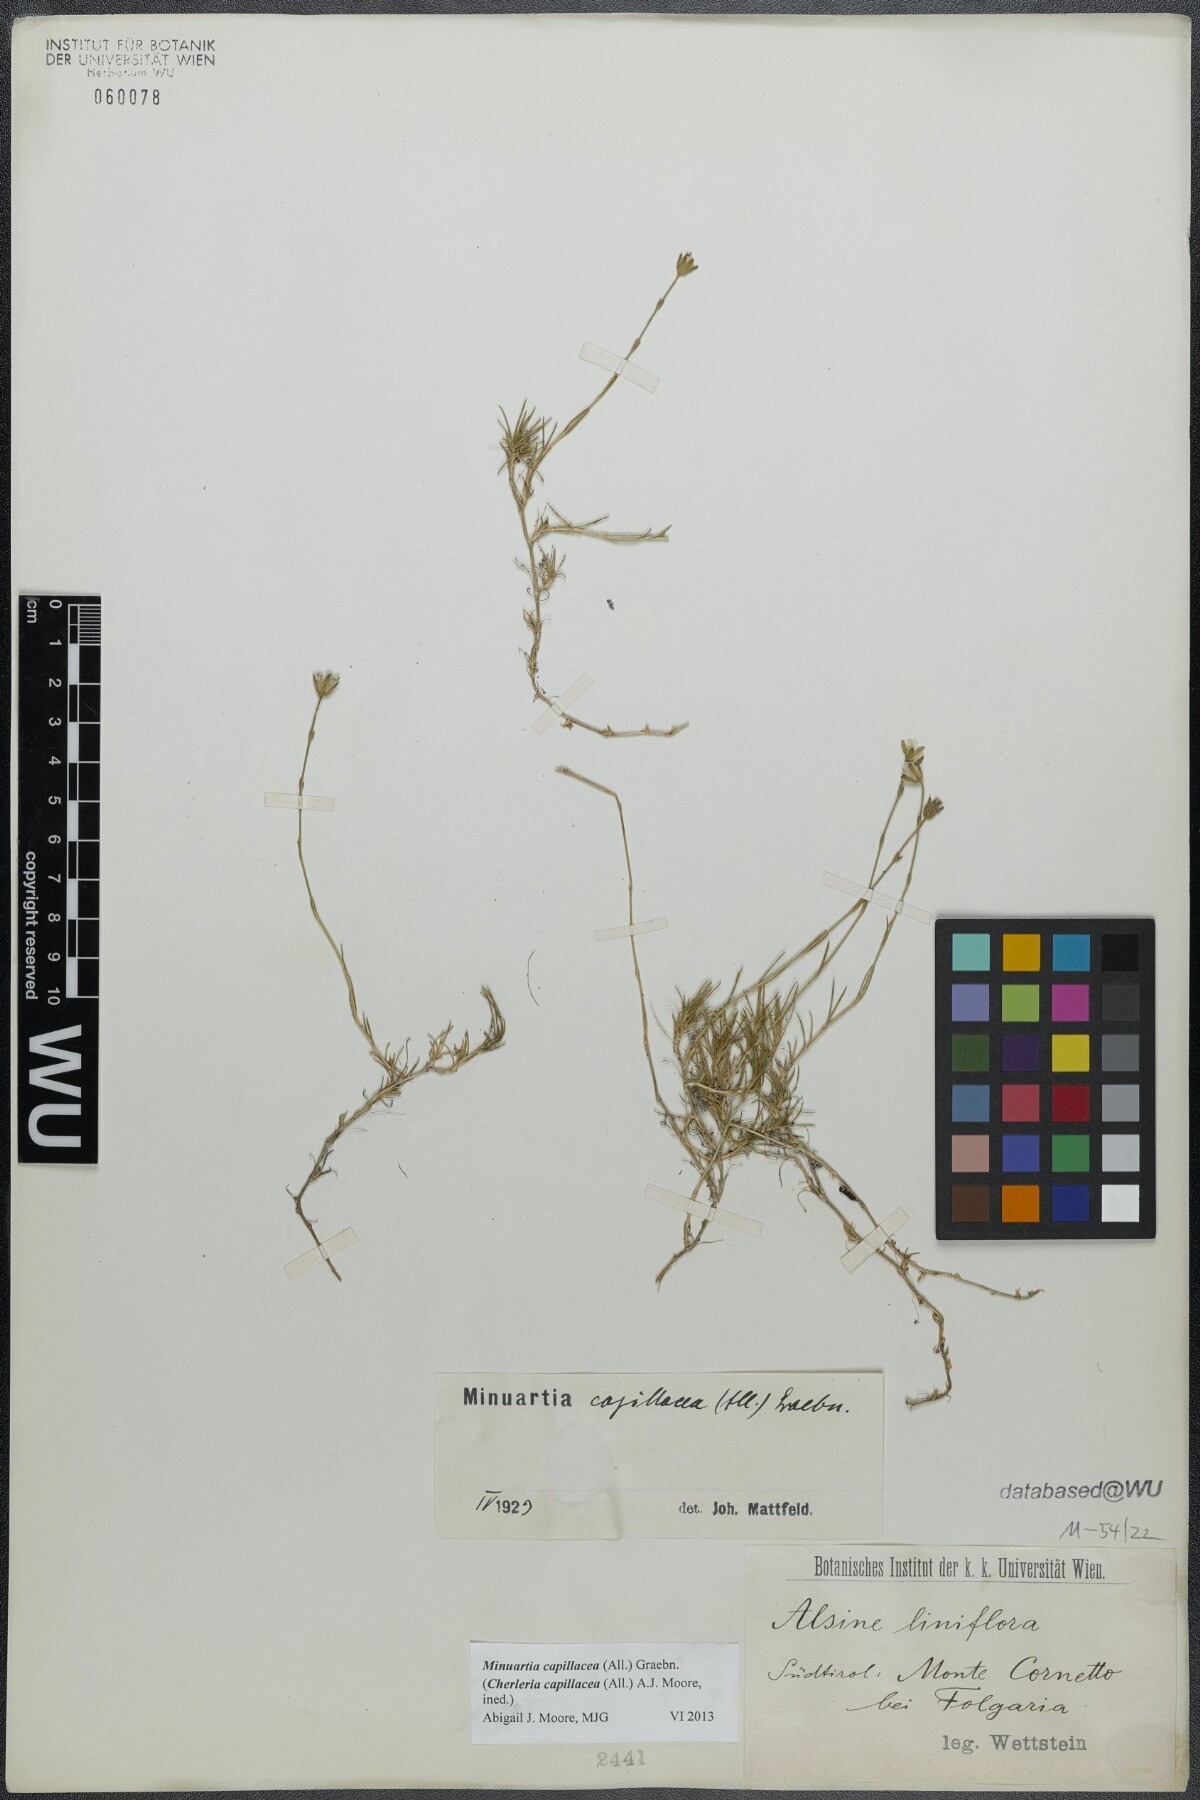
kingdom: Plantae
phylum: Tracheophyta
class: Magnoliopsida
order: Caryophyllales
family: Caryophyllaceae
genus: Cherleria
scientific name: Cherleria capillacea
